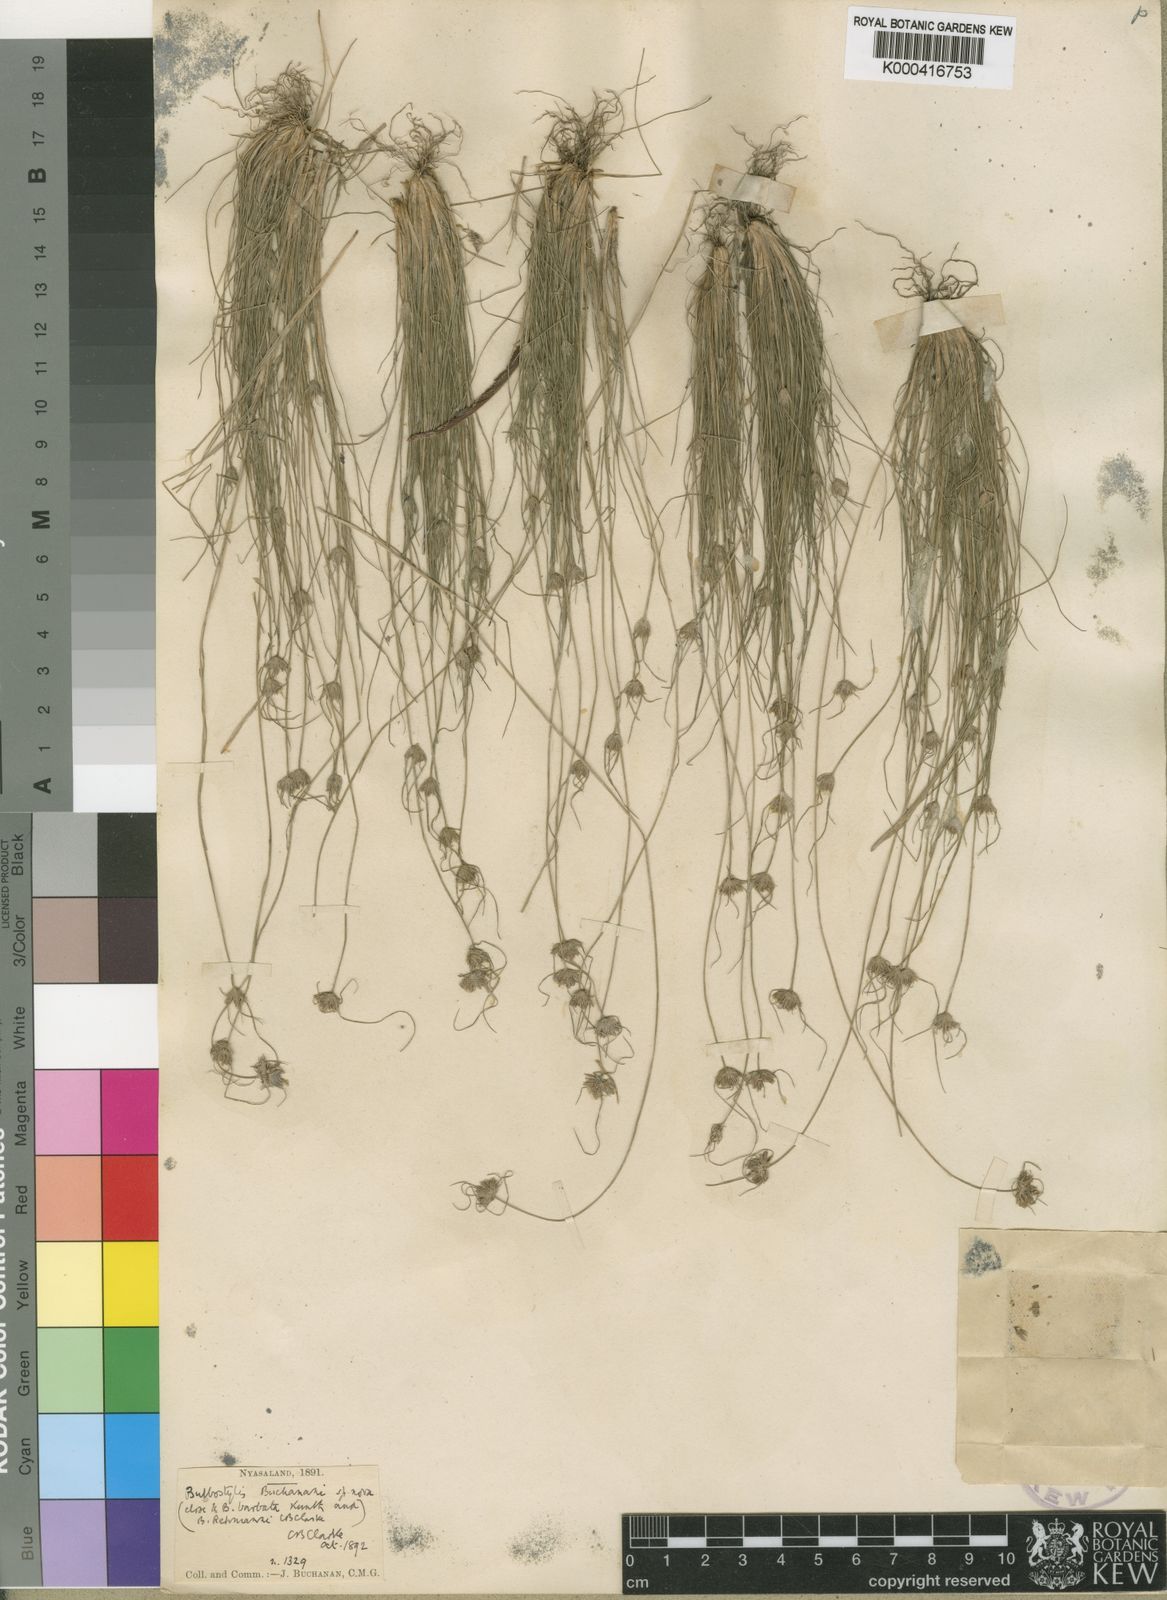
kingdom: Plantae
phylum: Tracheophyta
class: Liliopsida
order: Poales
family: Cyperaceae
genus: Bulbostylis
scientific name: Bulbostylis buchananii
